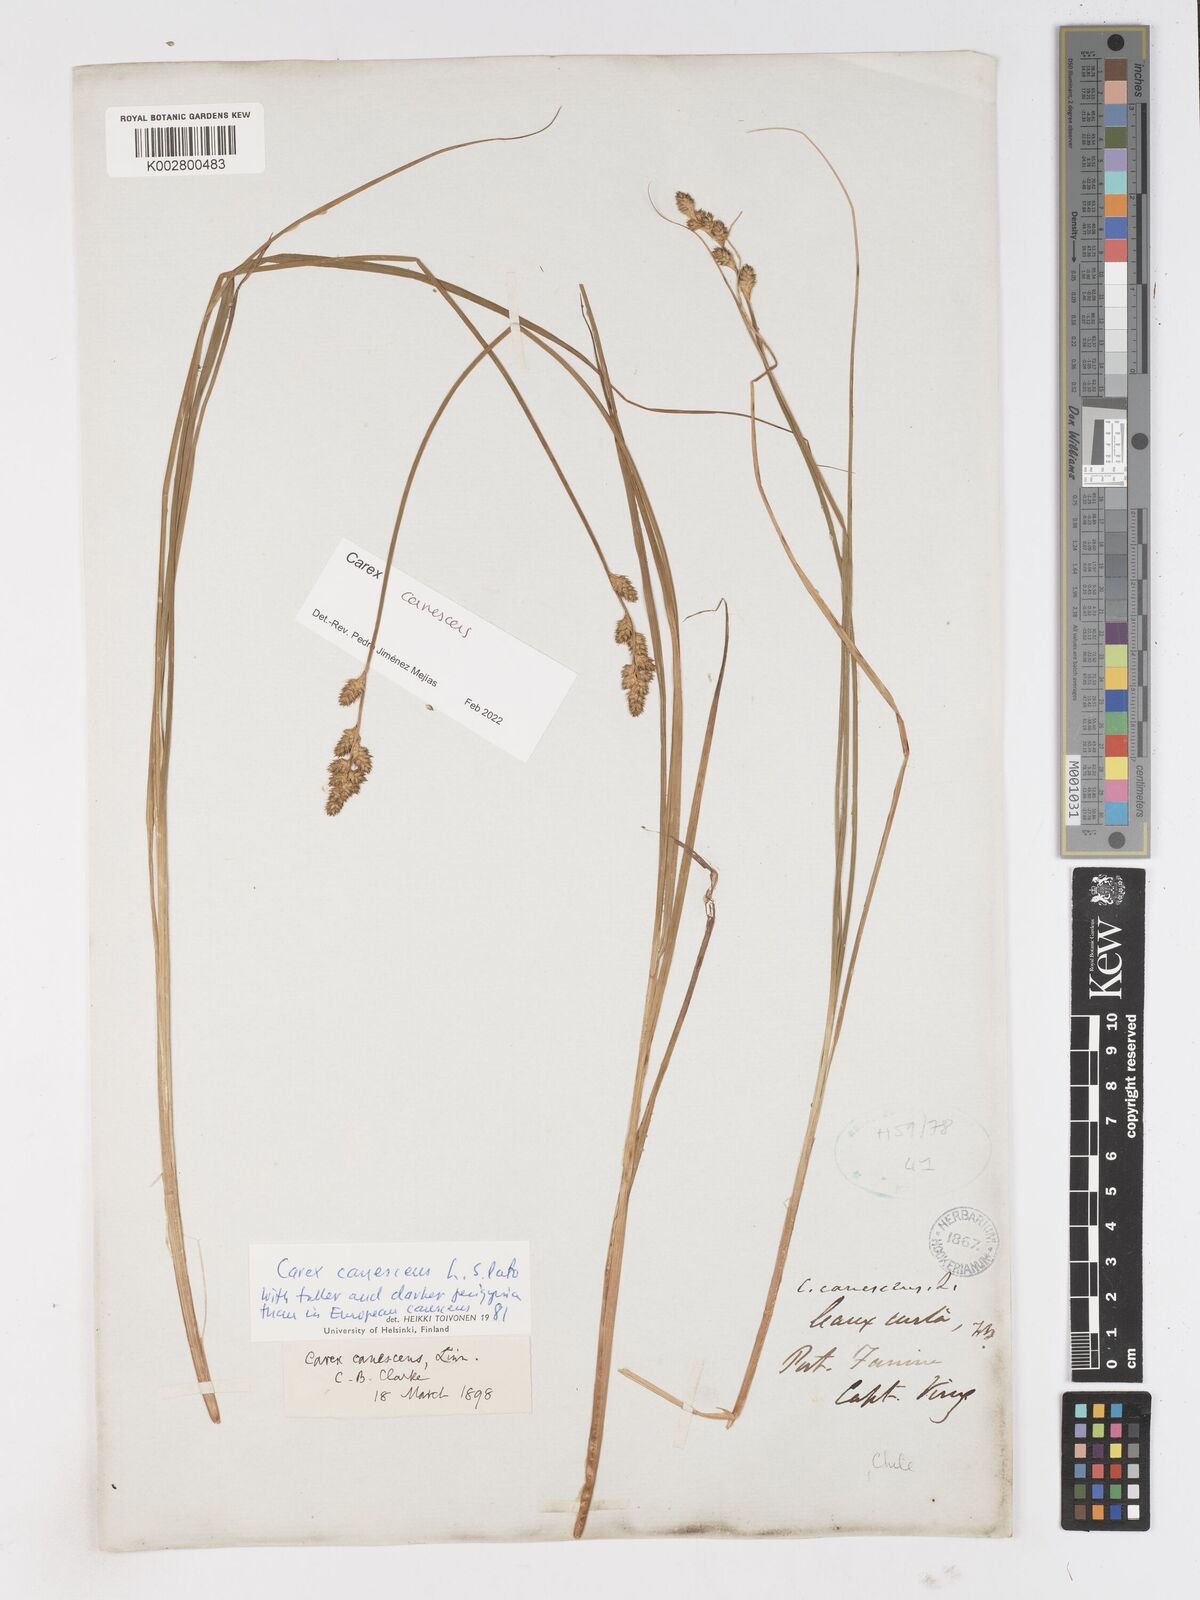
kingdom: Plantae
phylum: Tracheophyta
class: Liliopsida
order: Poales
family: Cyperaceae
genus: Carex
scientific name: Carex curta
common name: White sedge
